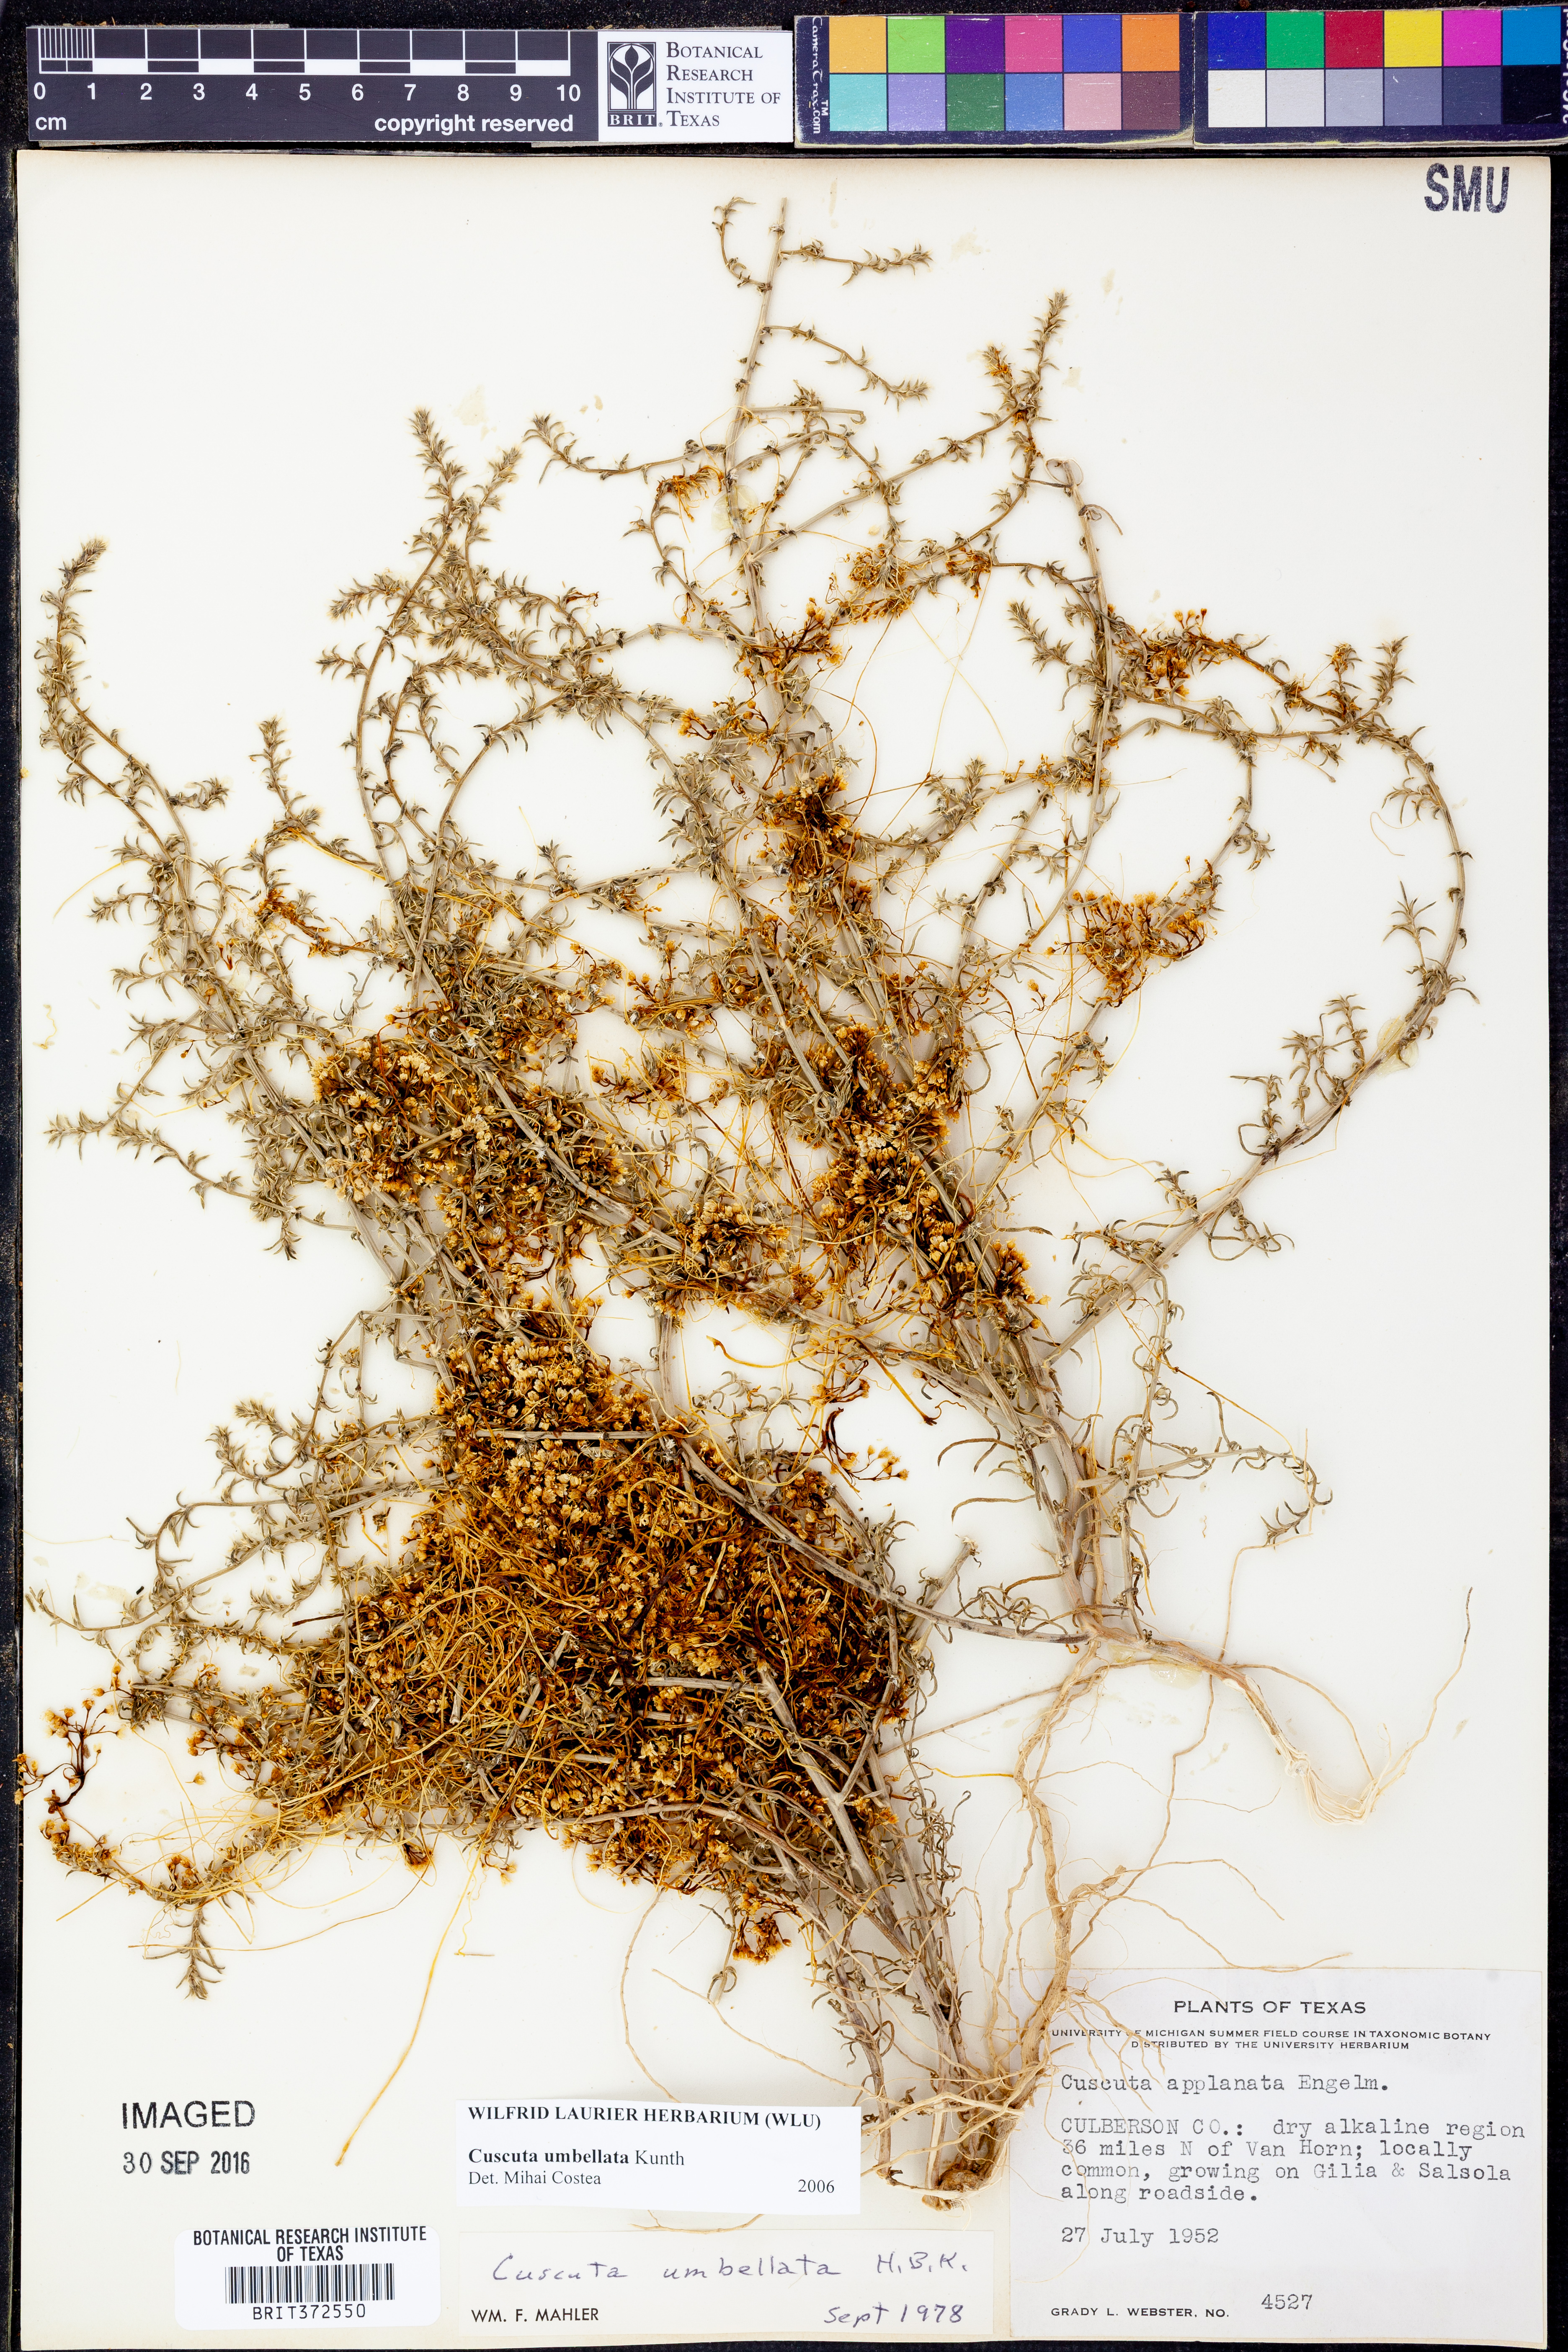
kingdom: Plantae
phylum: Tracheophyta
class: Magnoliopsida
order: Solanales
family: Convolvulaceae
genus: Cuscuta
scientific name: Cuscuta umbellata
